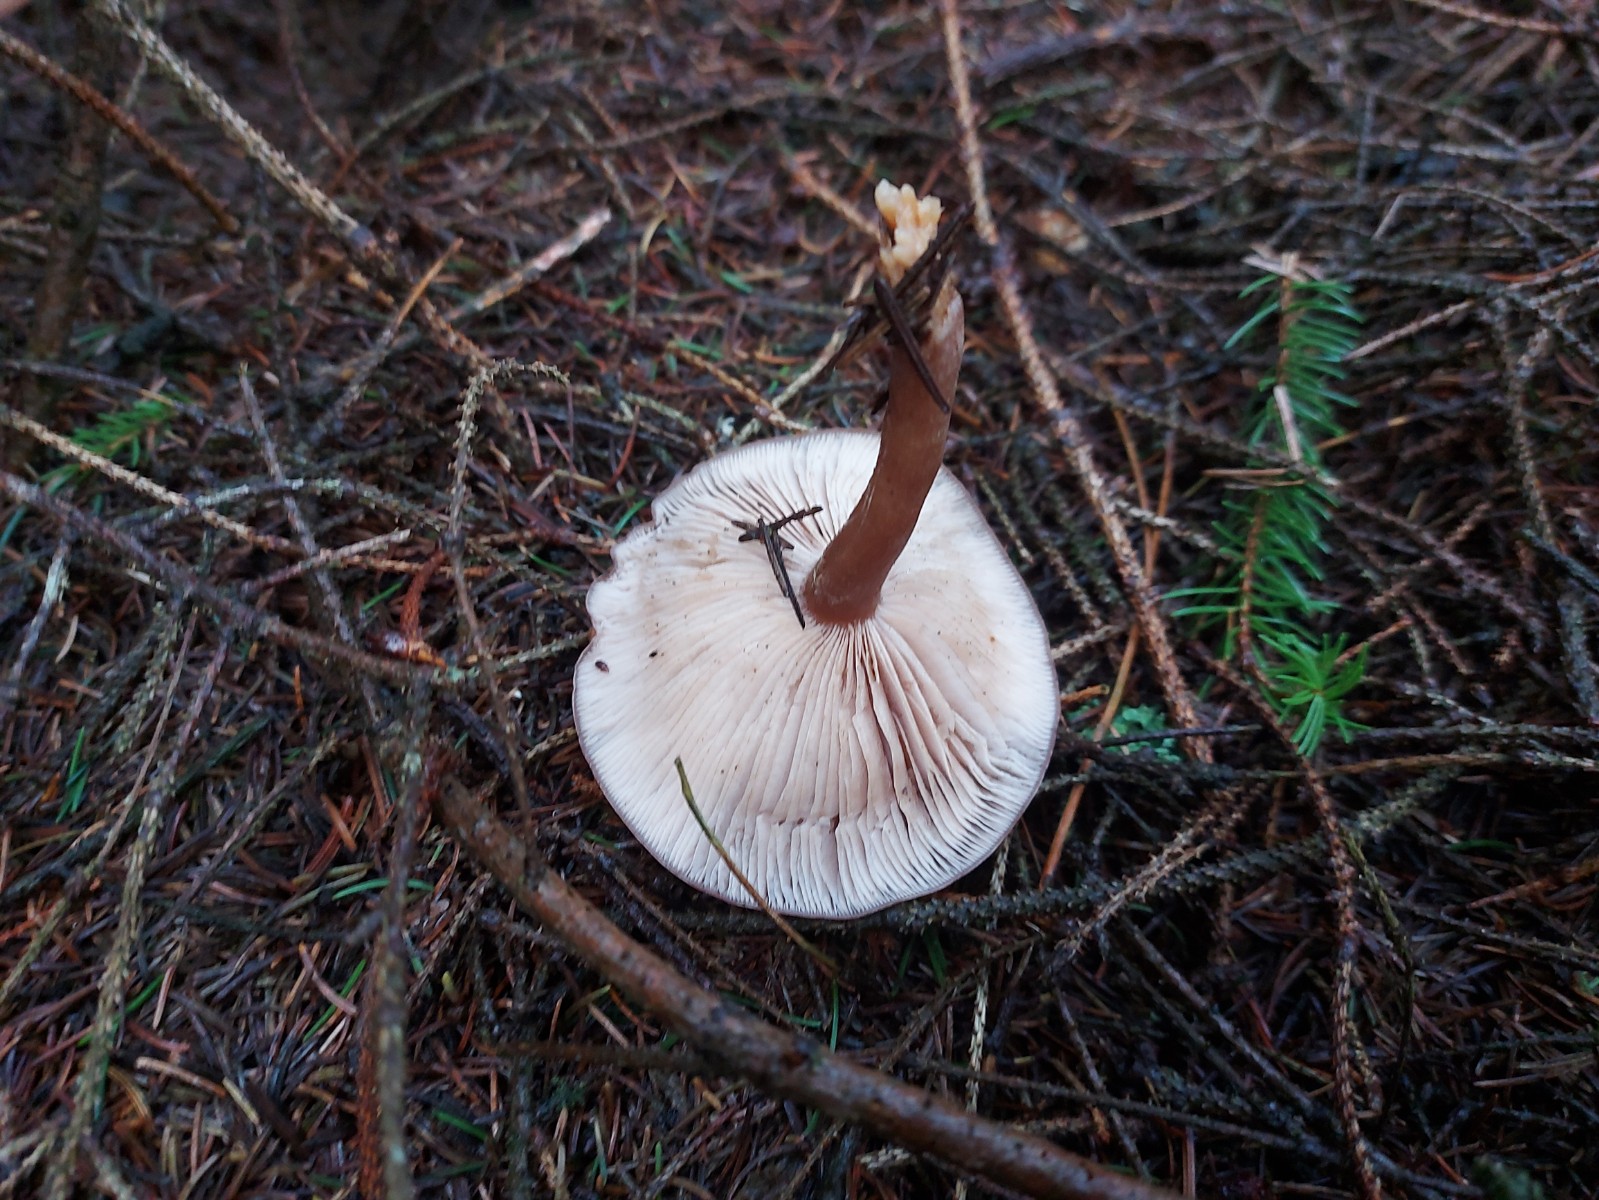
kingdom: Fungi
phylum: Basidiomycota
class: Agaricomycetes
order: Agaricales
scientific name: Agaricales
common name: champignonordenen
